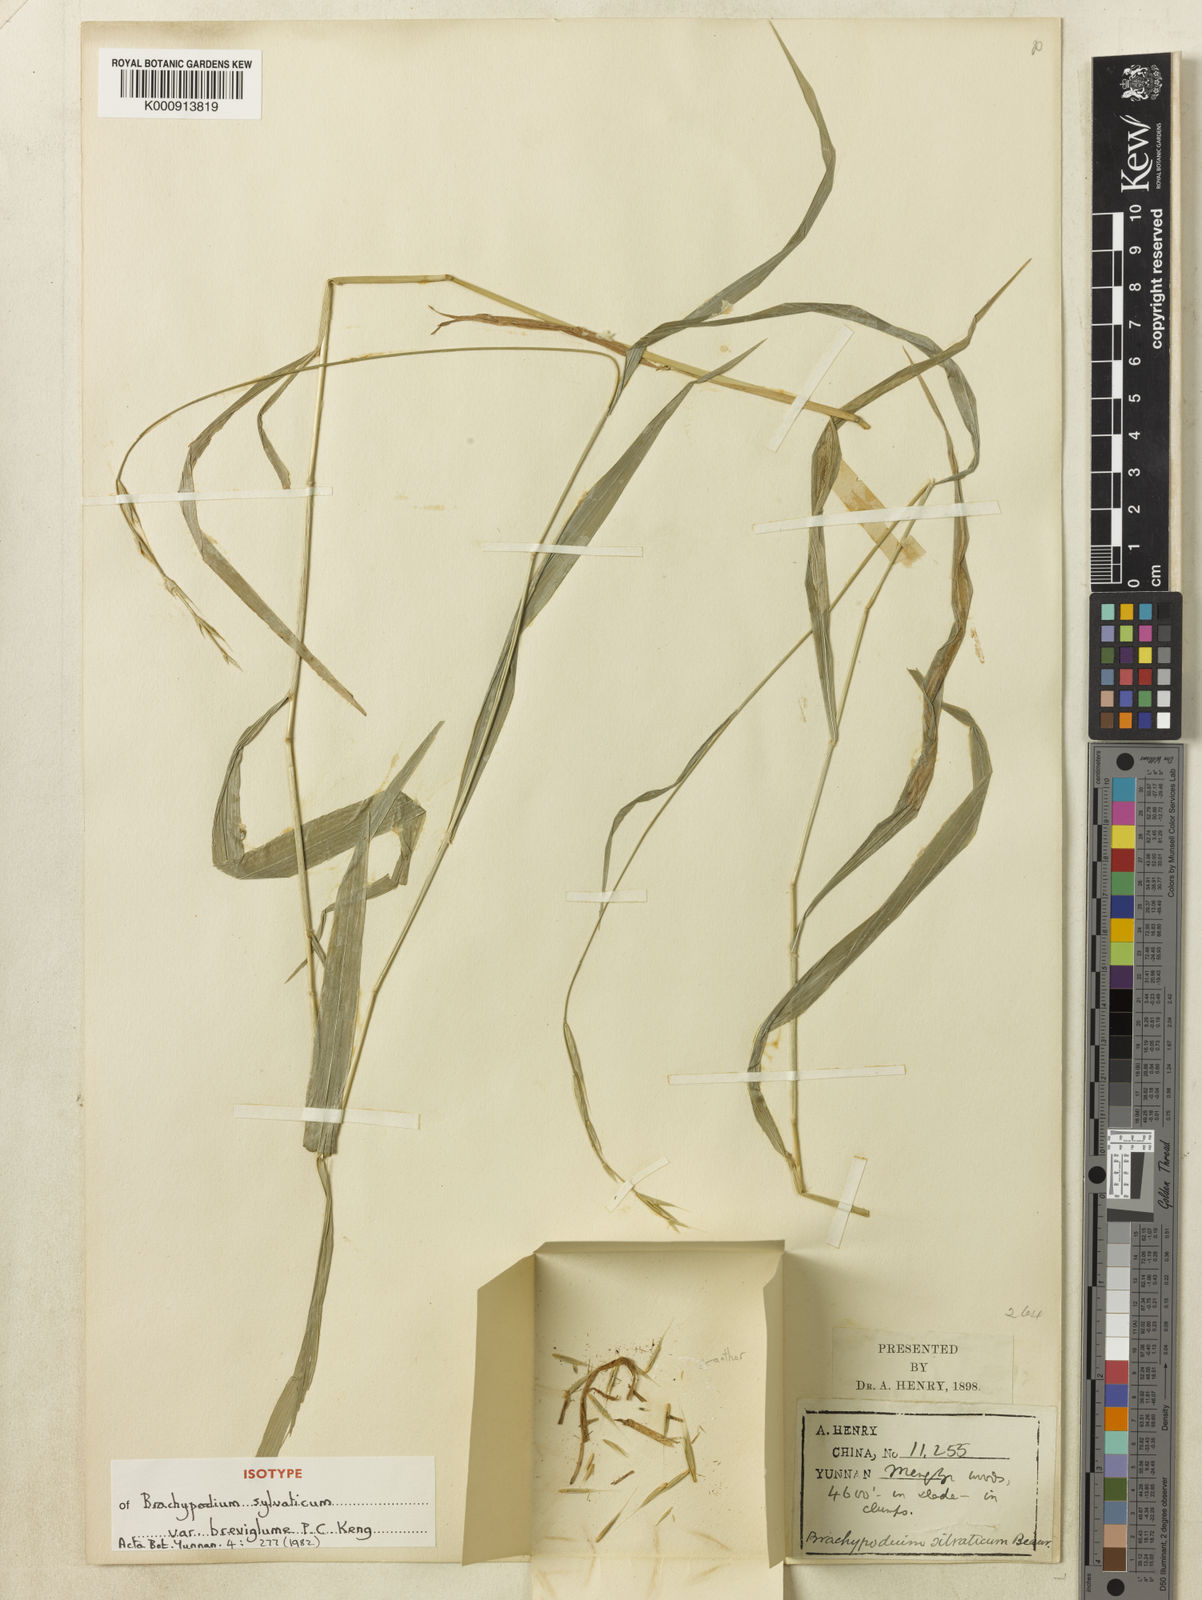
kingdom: Plantae
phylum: Tracheophyta
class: Liliopsida
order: Poales
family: Poaceae
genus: Brachypodium
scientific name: Brachypodium sylvaticum
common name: False-brome
